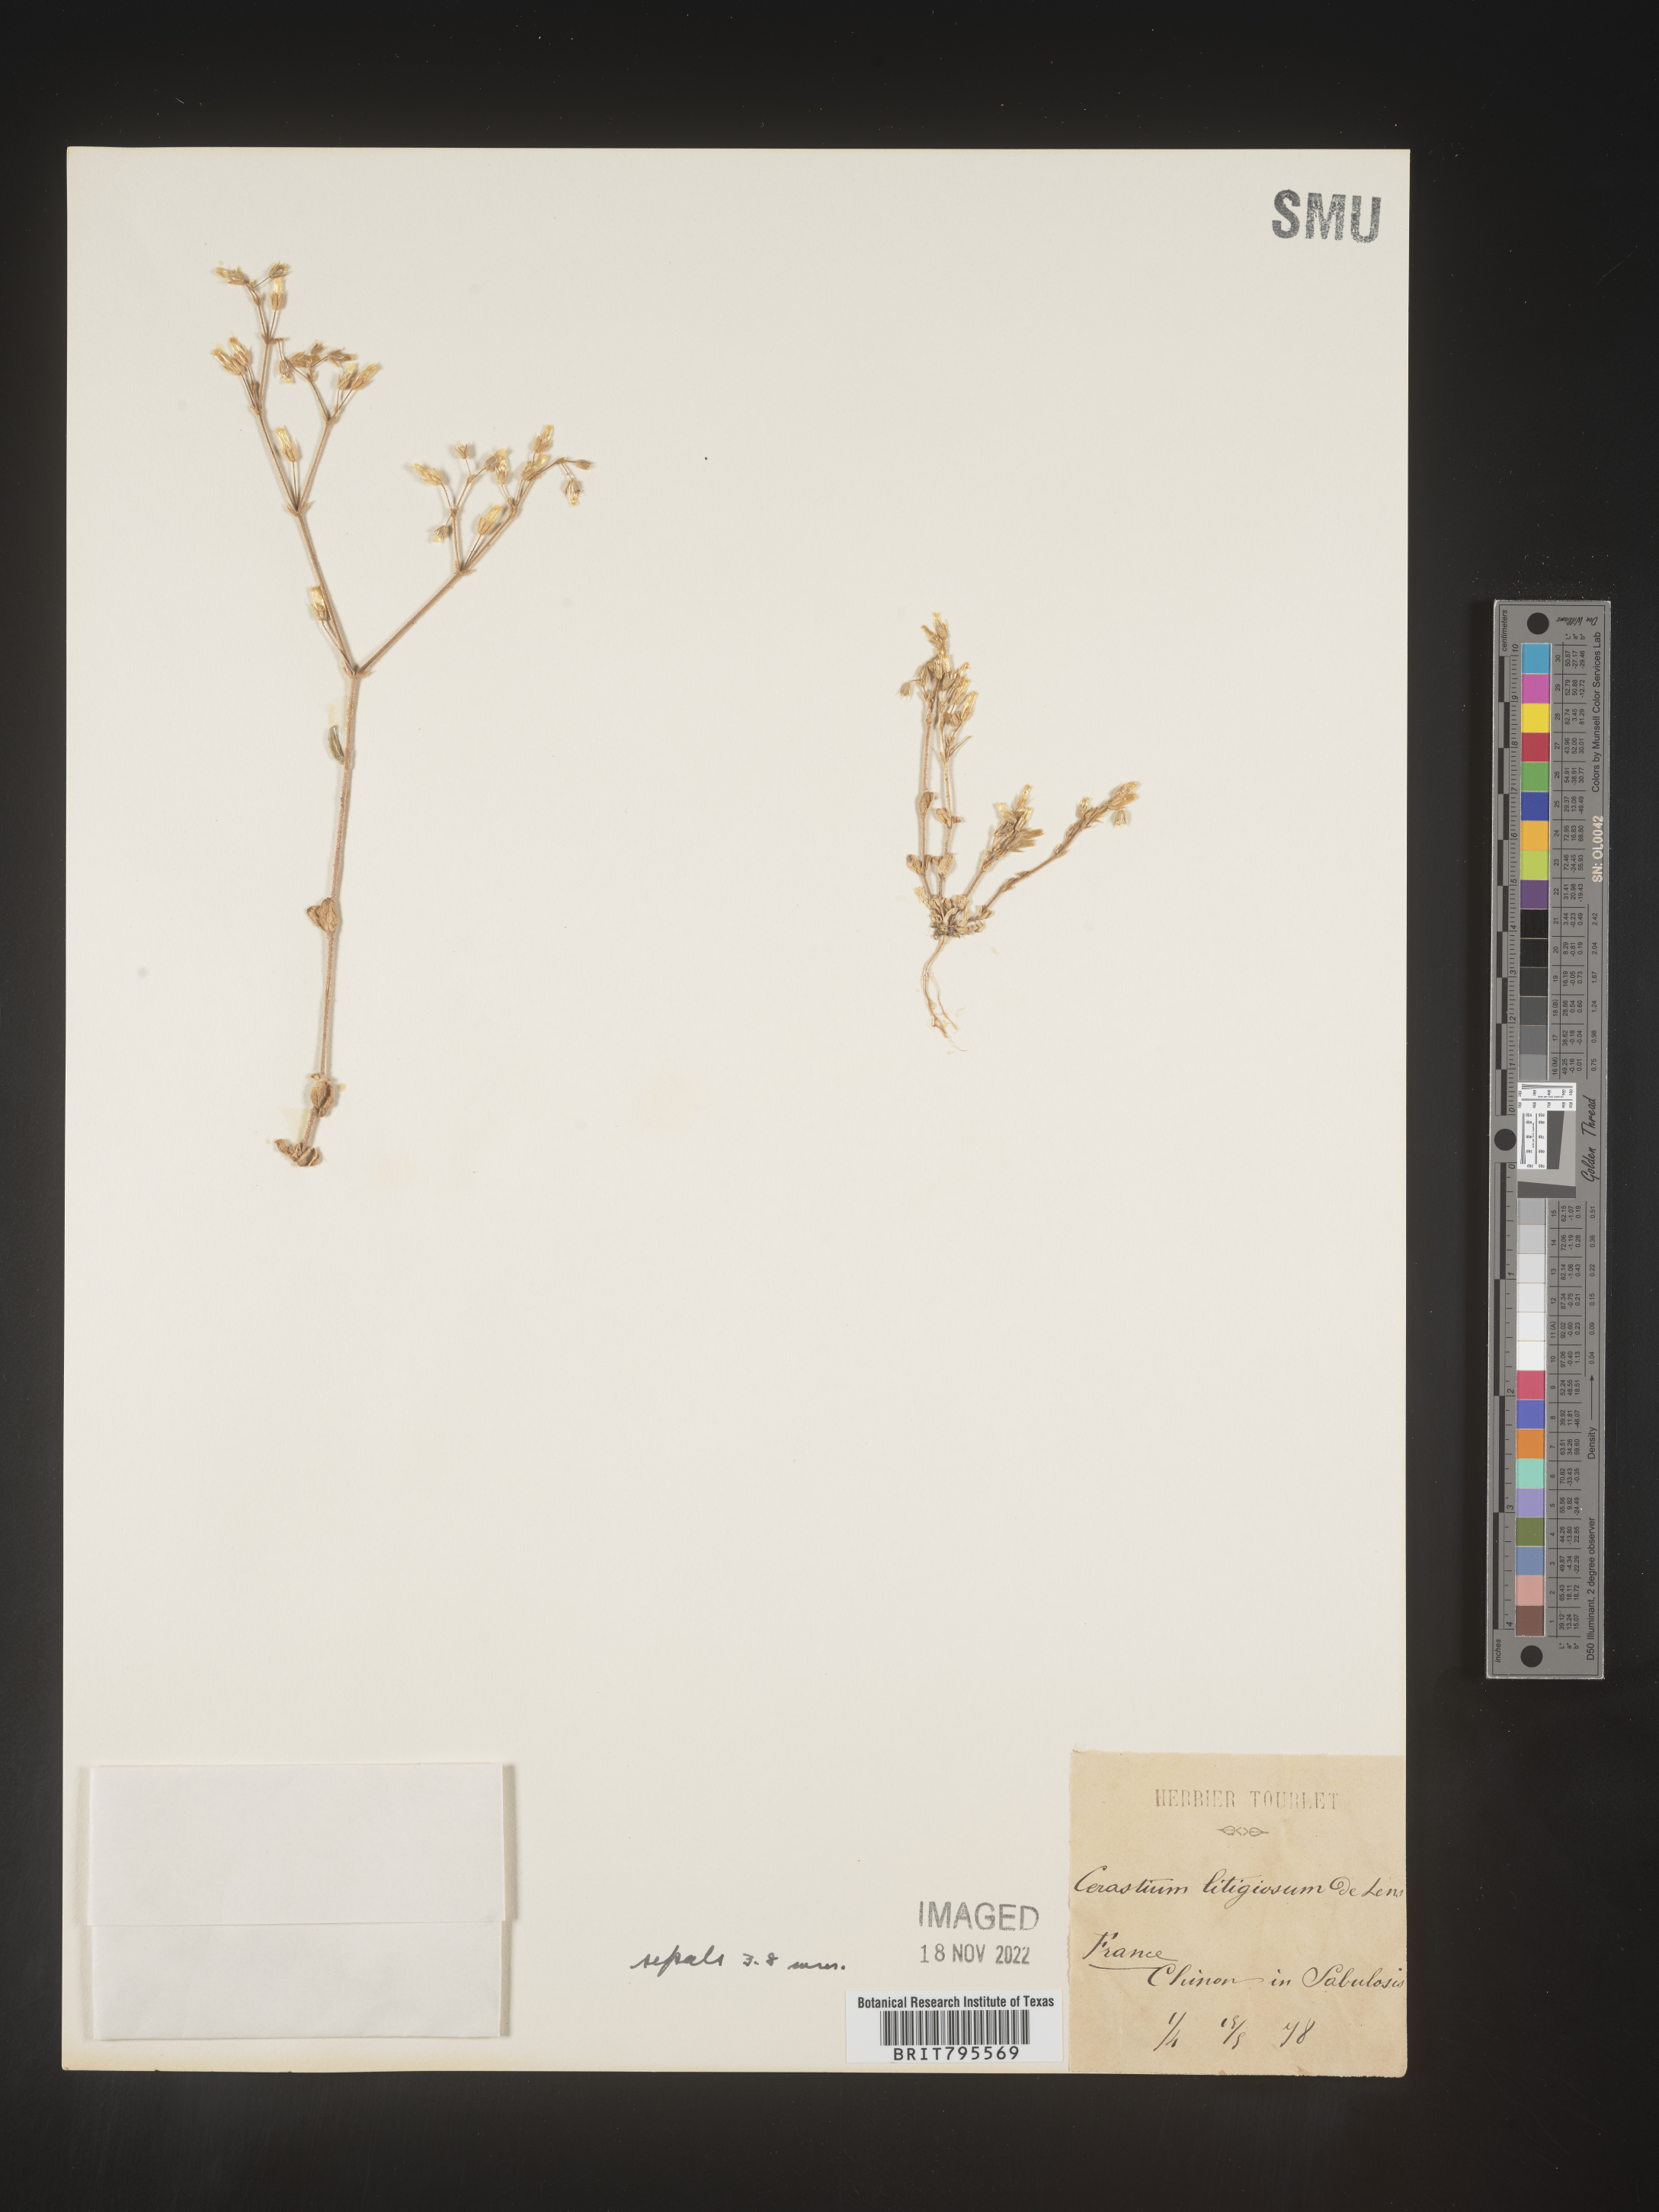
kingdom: Plantae
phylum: Tracheophyta
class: Magnoliopsida
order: Caryophyllales
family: Caryophyllaceae
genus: Cerastium
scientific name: Cerastium
